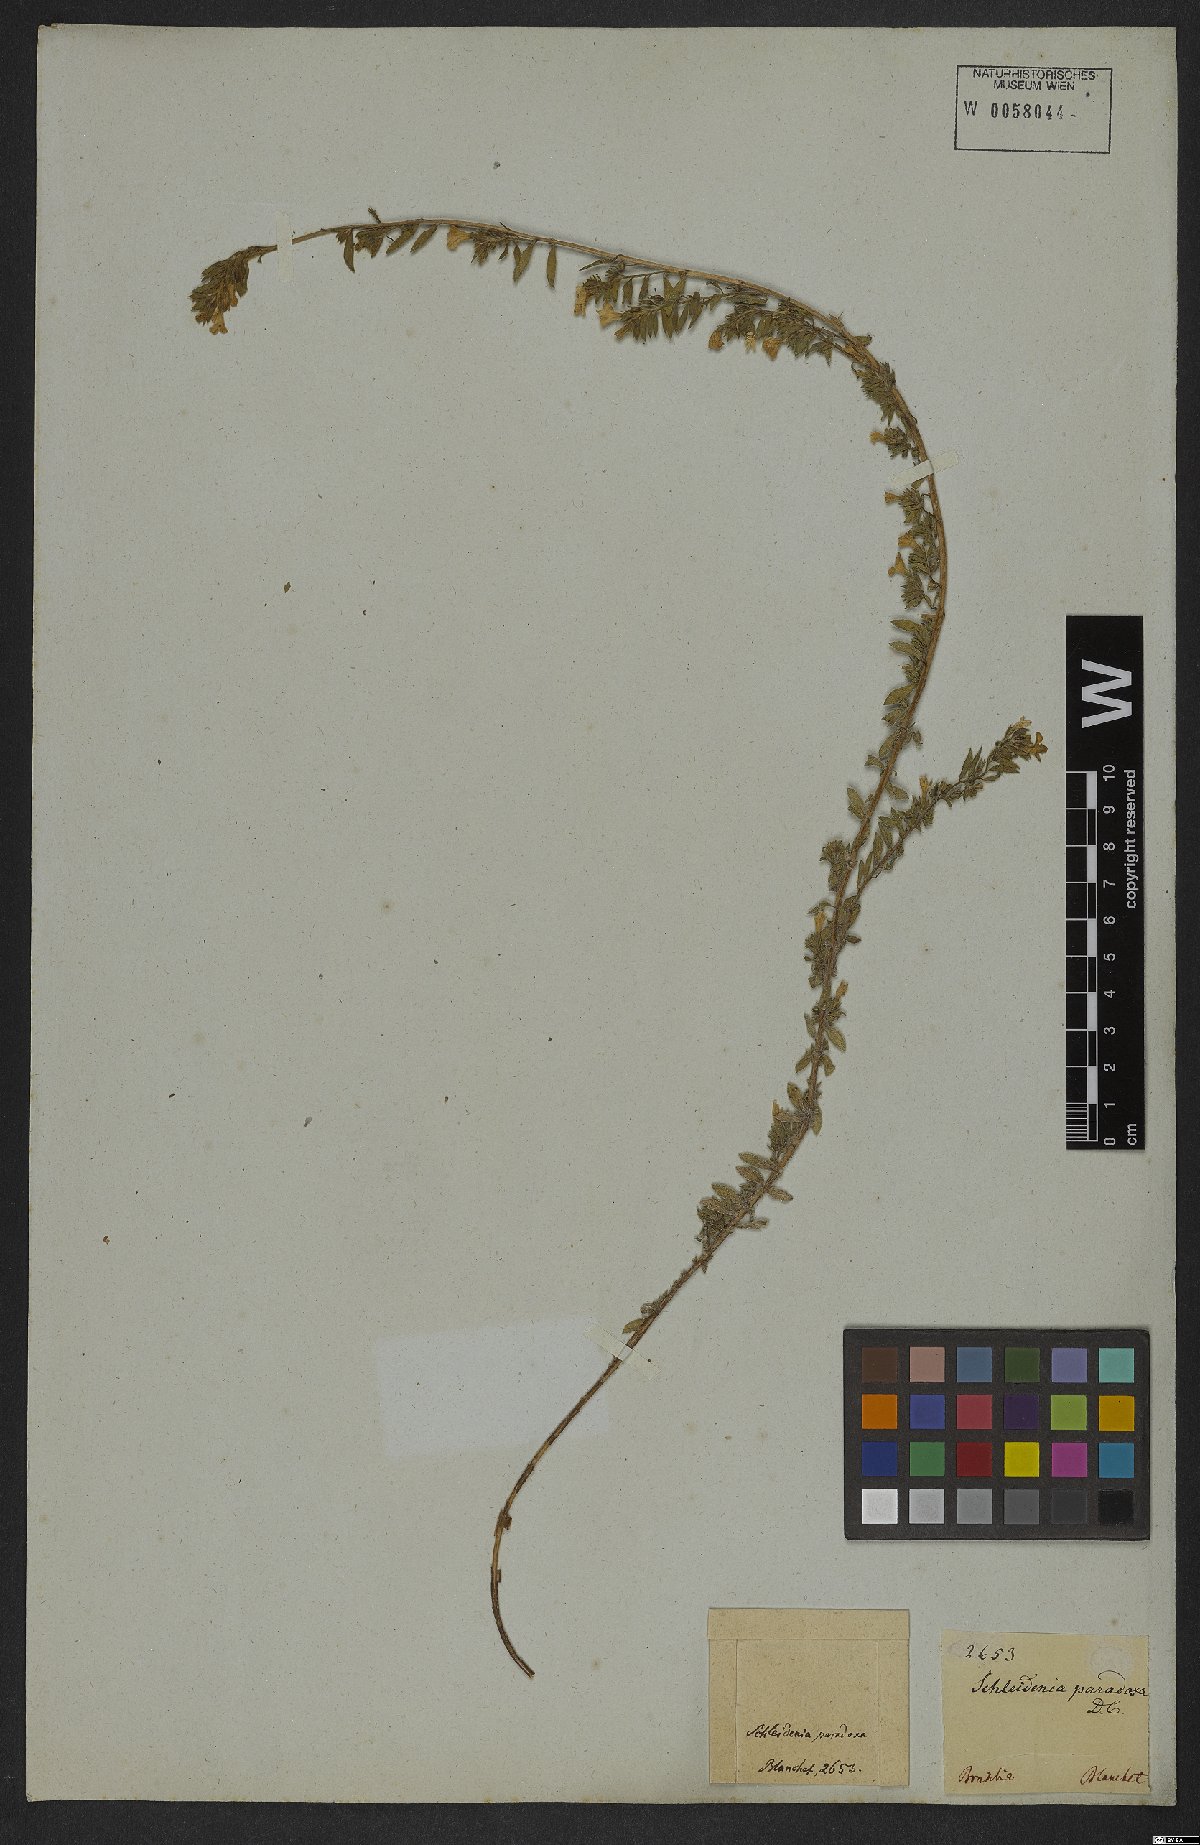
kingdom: Plantae
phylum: Tracheophyta
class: Magnoliopsida
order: Boraginales
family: Heliotropiaceae
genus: Heliotropium
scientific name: Heliotropium macrodon
